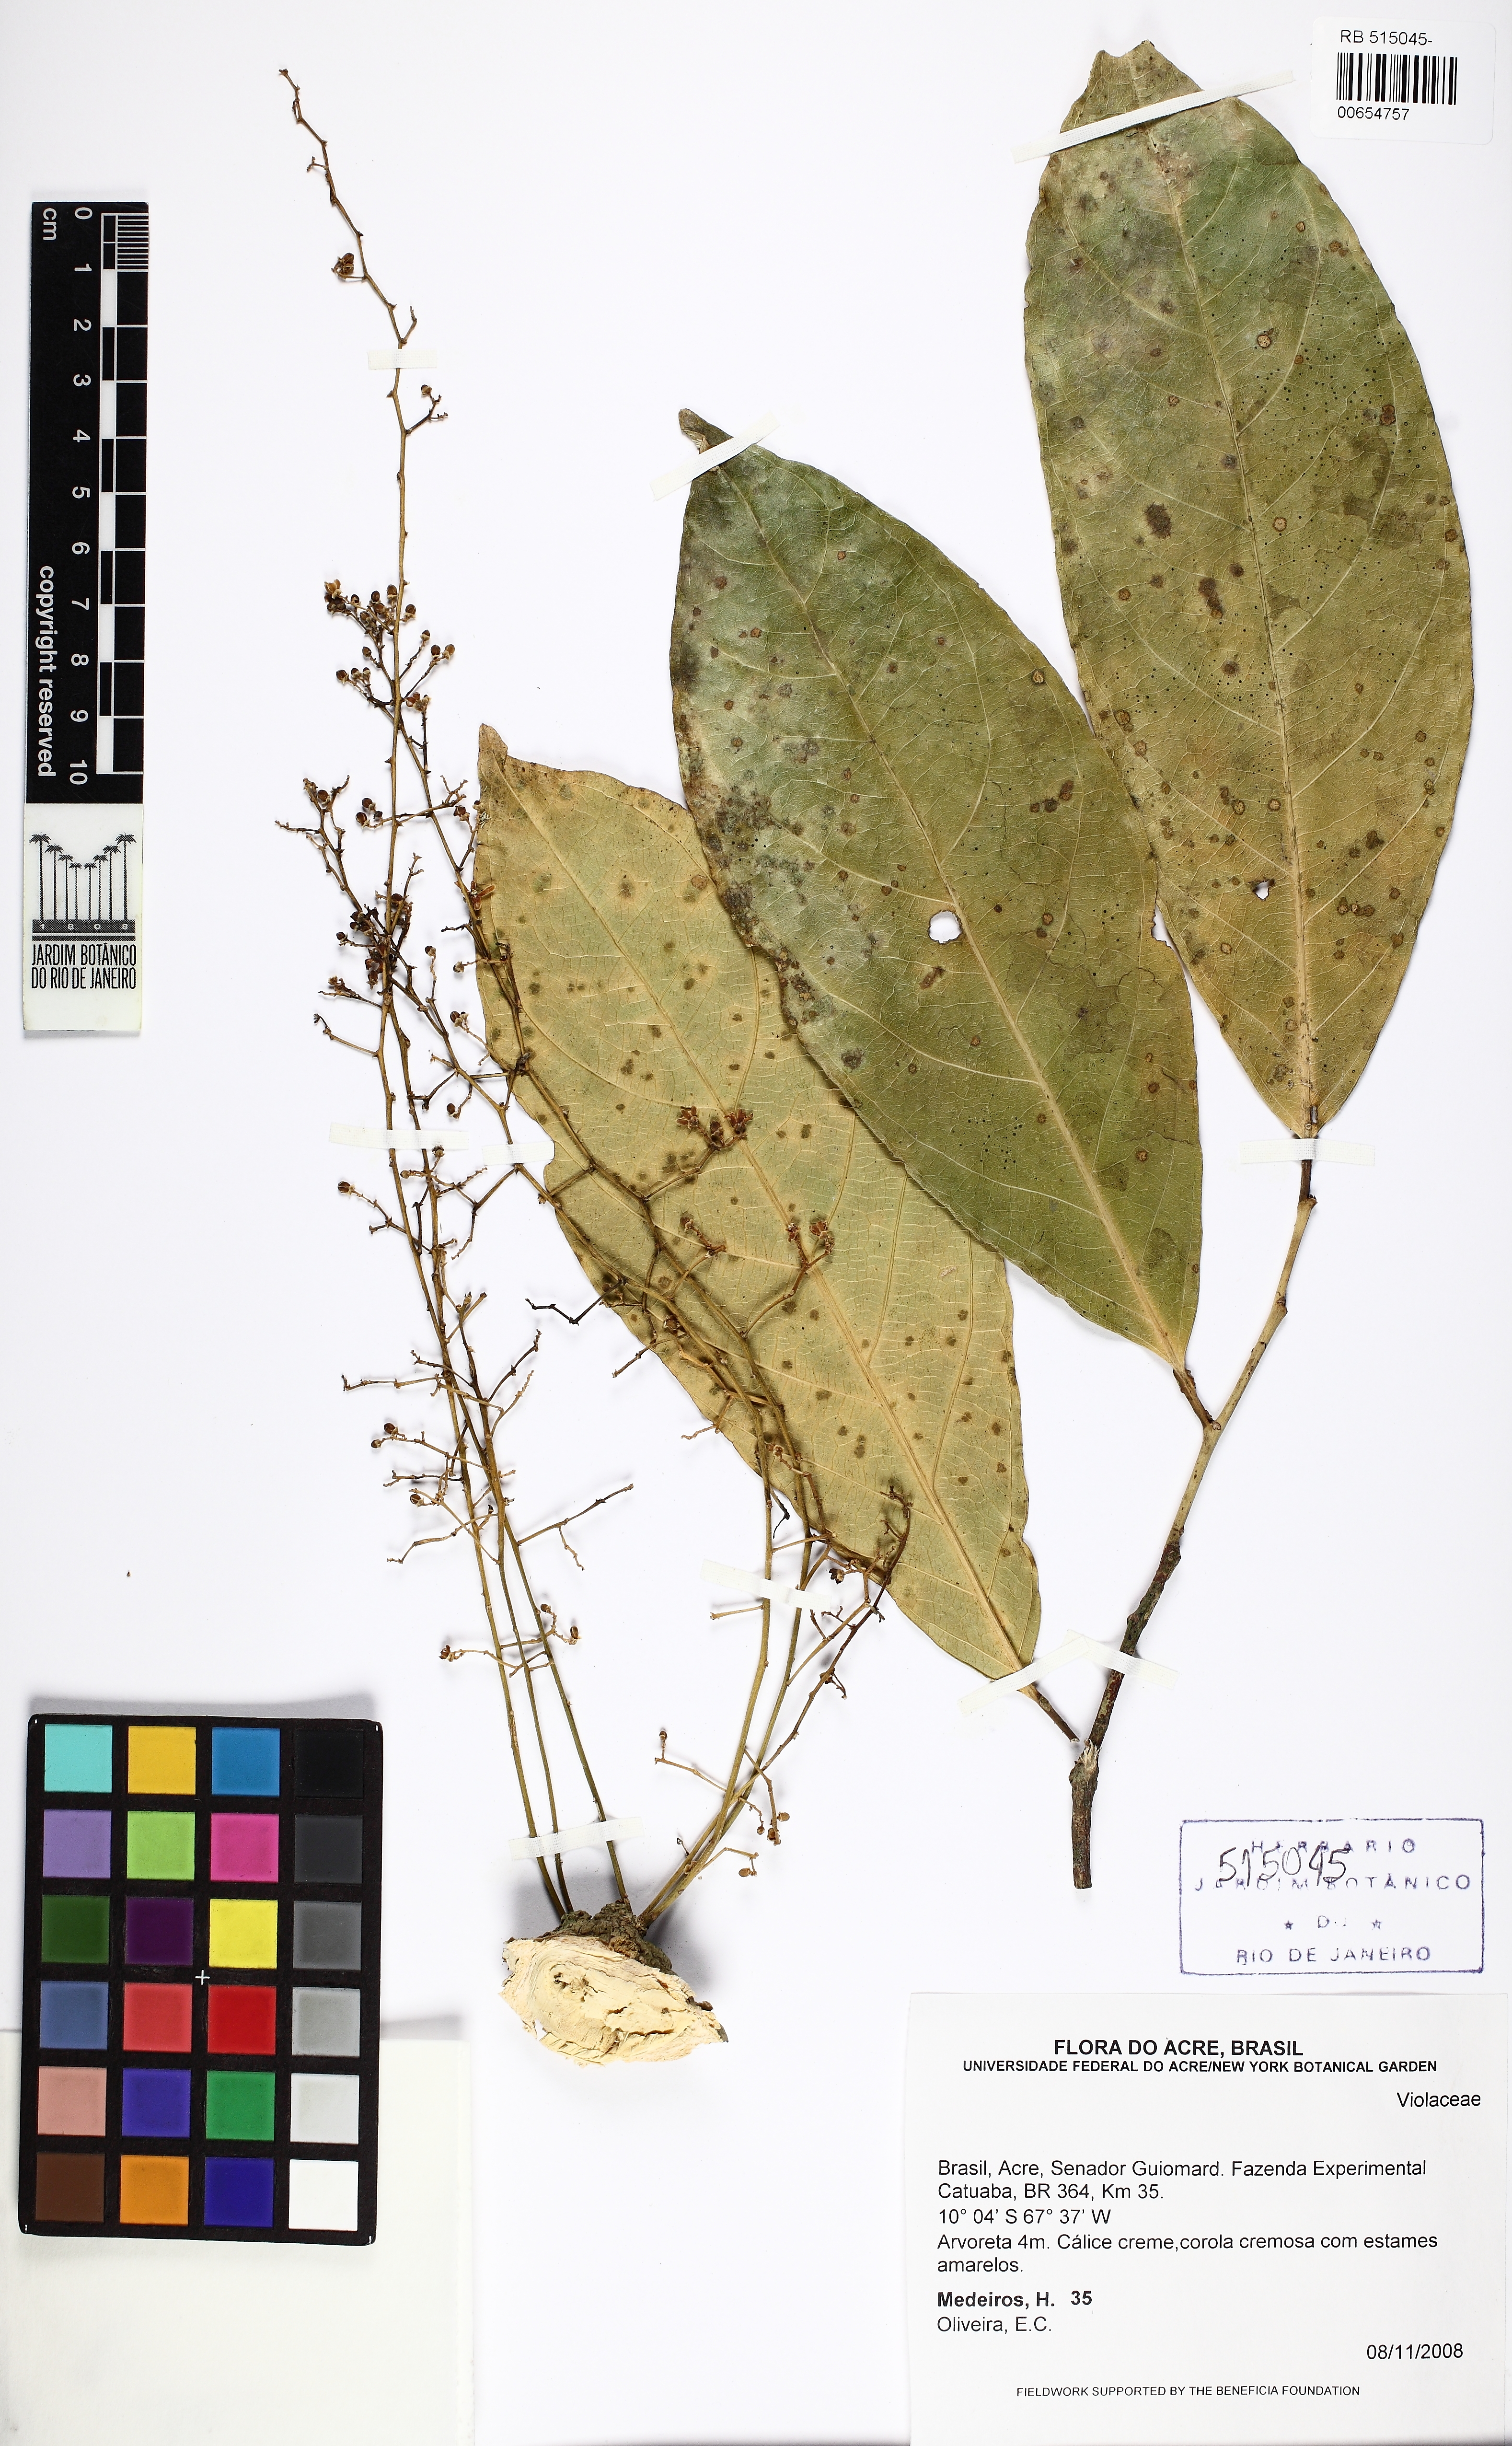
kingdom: Plantae
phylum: Tracheophyta
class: Magnoliopsida
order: Malpighiales
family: Violaceae
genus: Leonia
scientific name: Leonia
